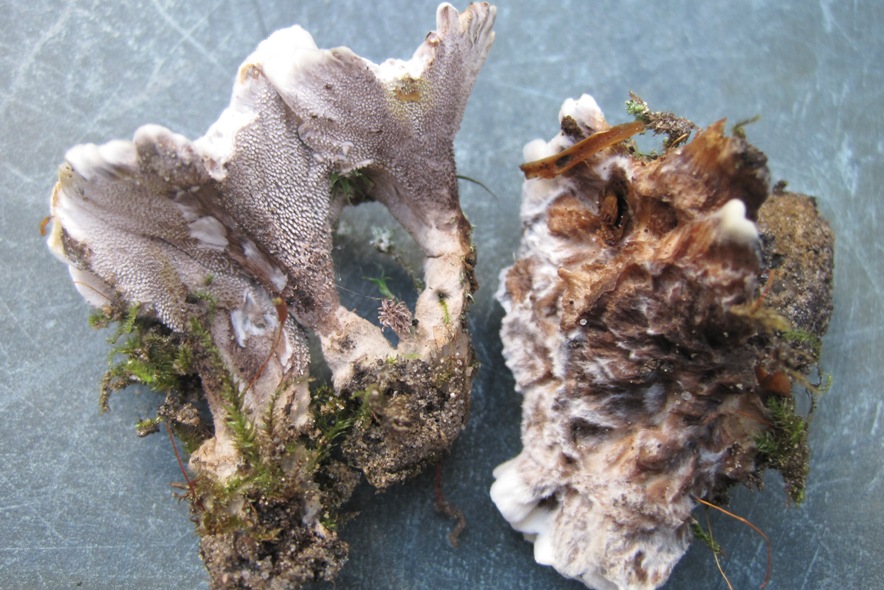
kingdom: Fungi
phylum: Basidiomycota
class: Agaricomycetes
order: Thelephorales
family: Thelephoraceae
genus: Phellodon
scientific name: Phellodon confluens
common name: pjaltet duftpigsvamp
